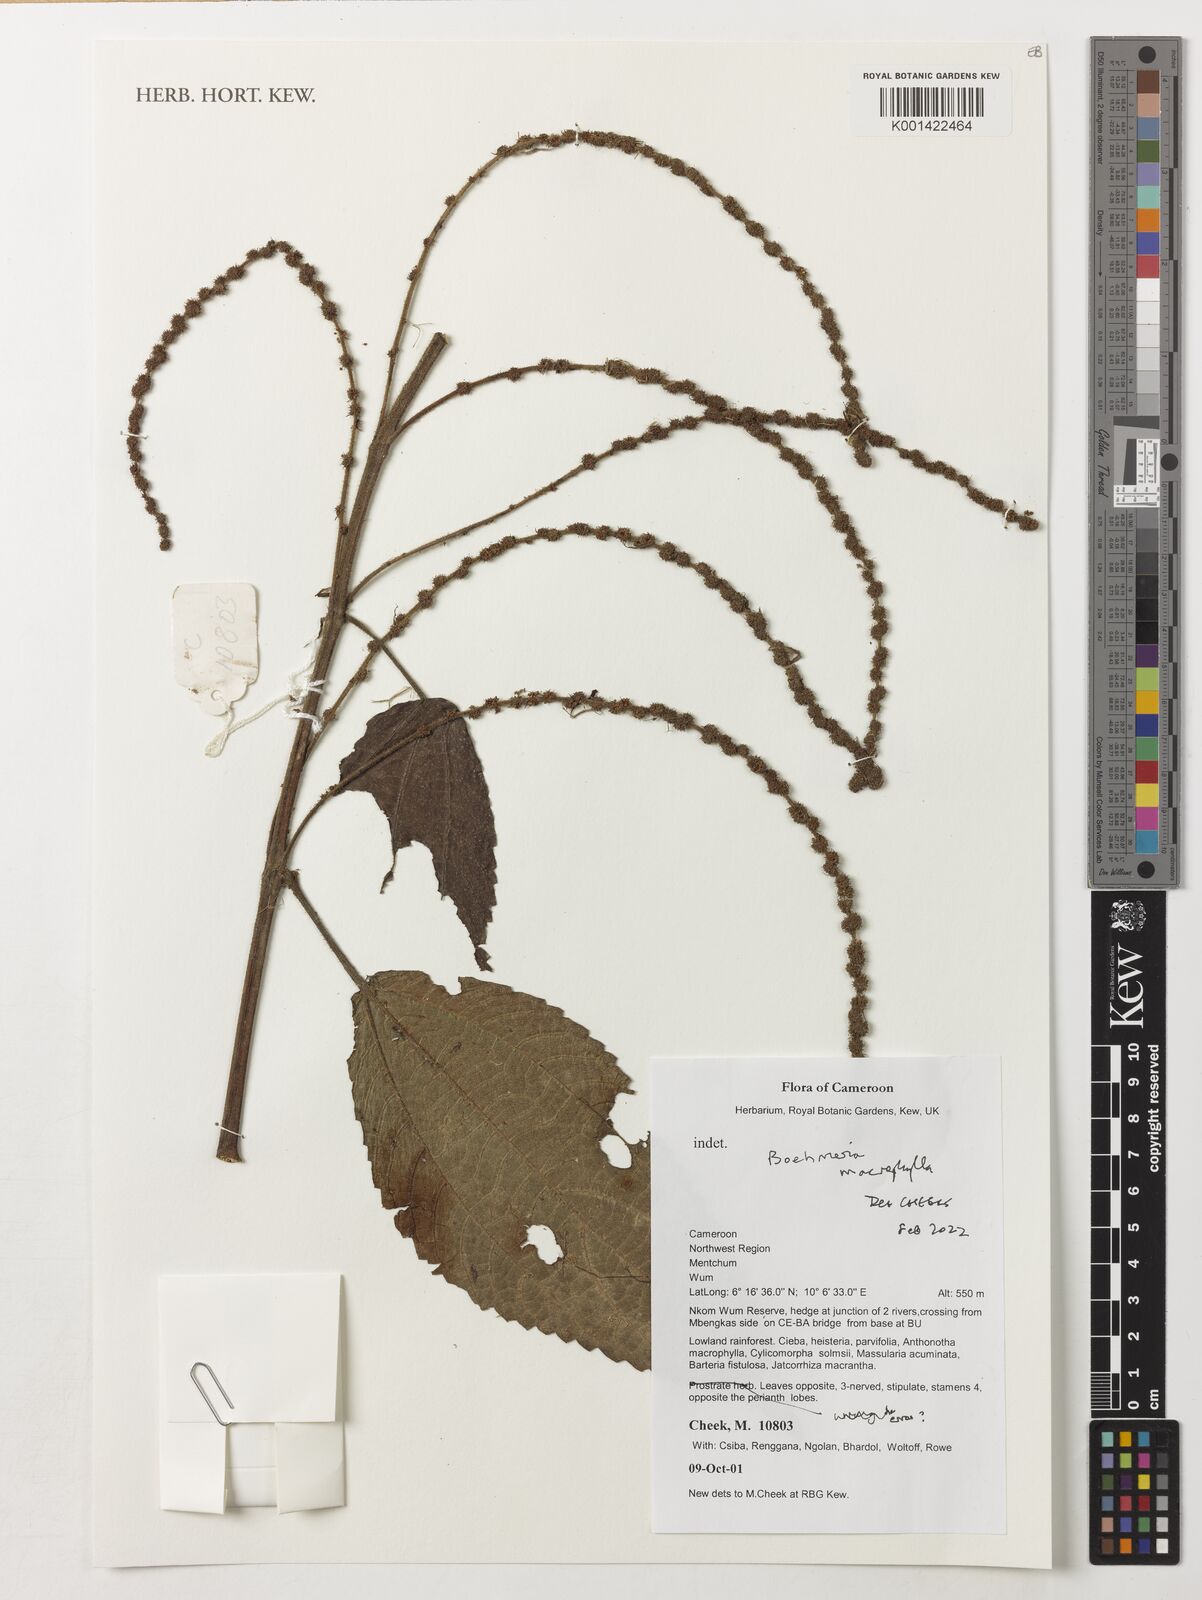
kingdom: Plantae
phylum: Tracheophyta
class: Magnoliopsida
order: Rosales
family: Urticaceae
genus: Boehmeria
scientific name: Boehmeria virgata
